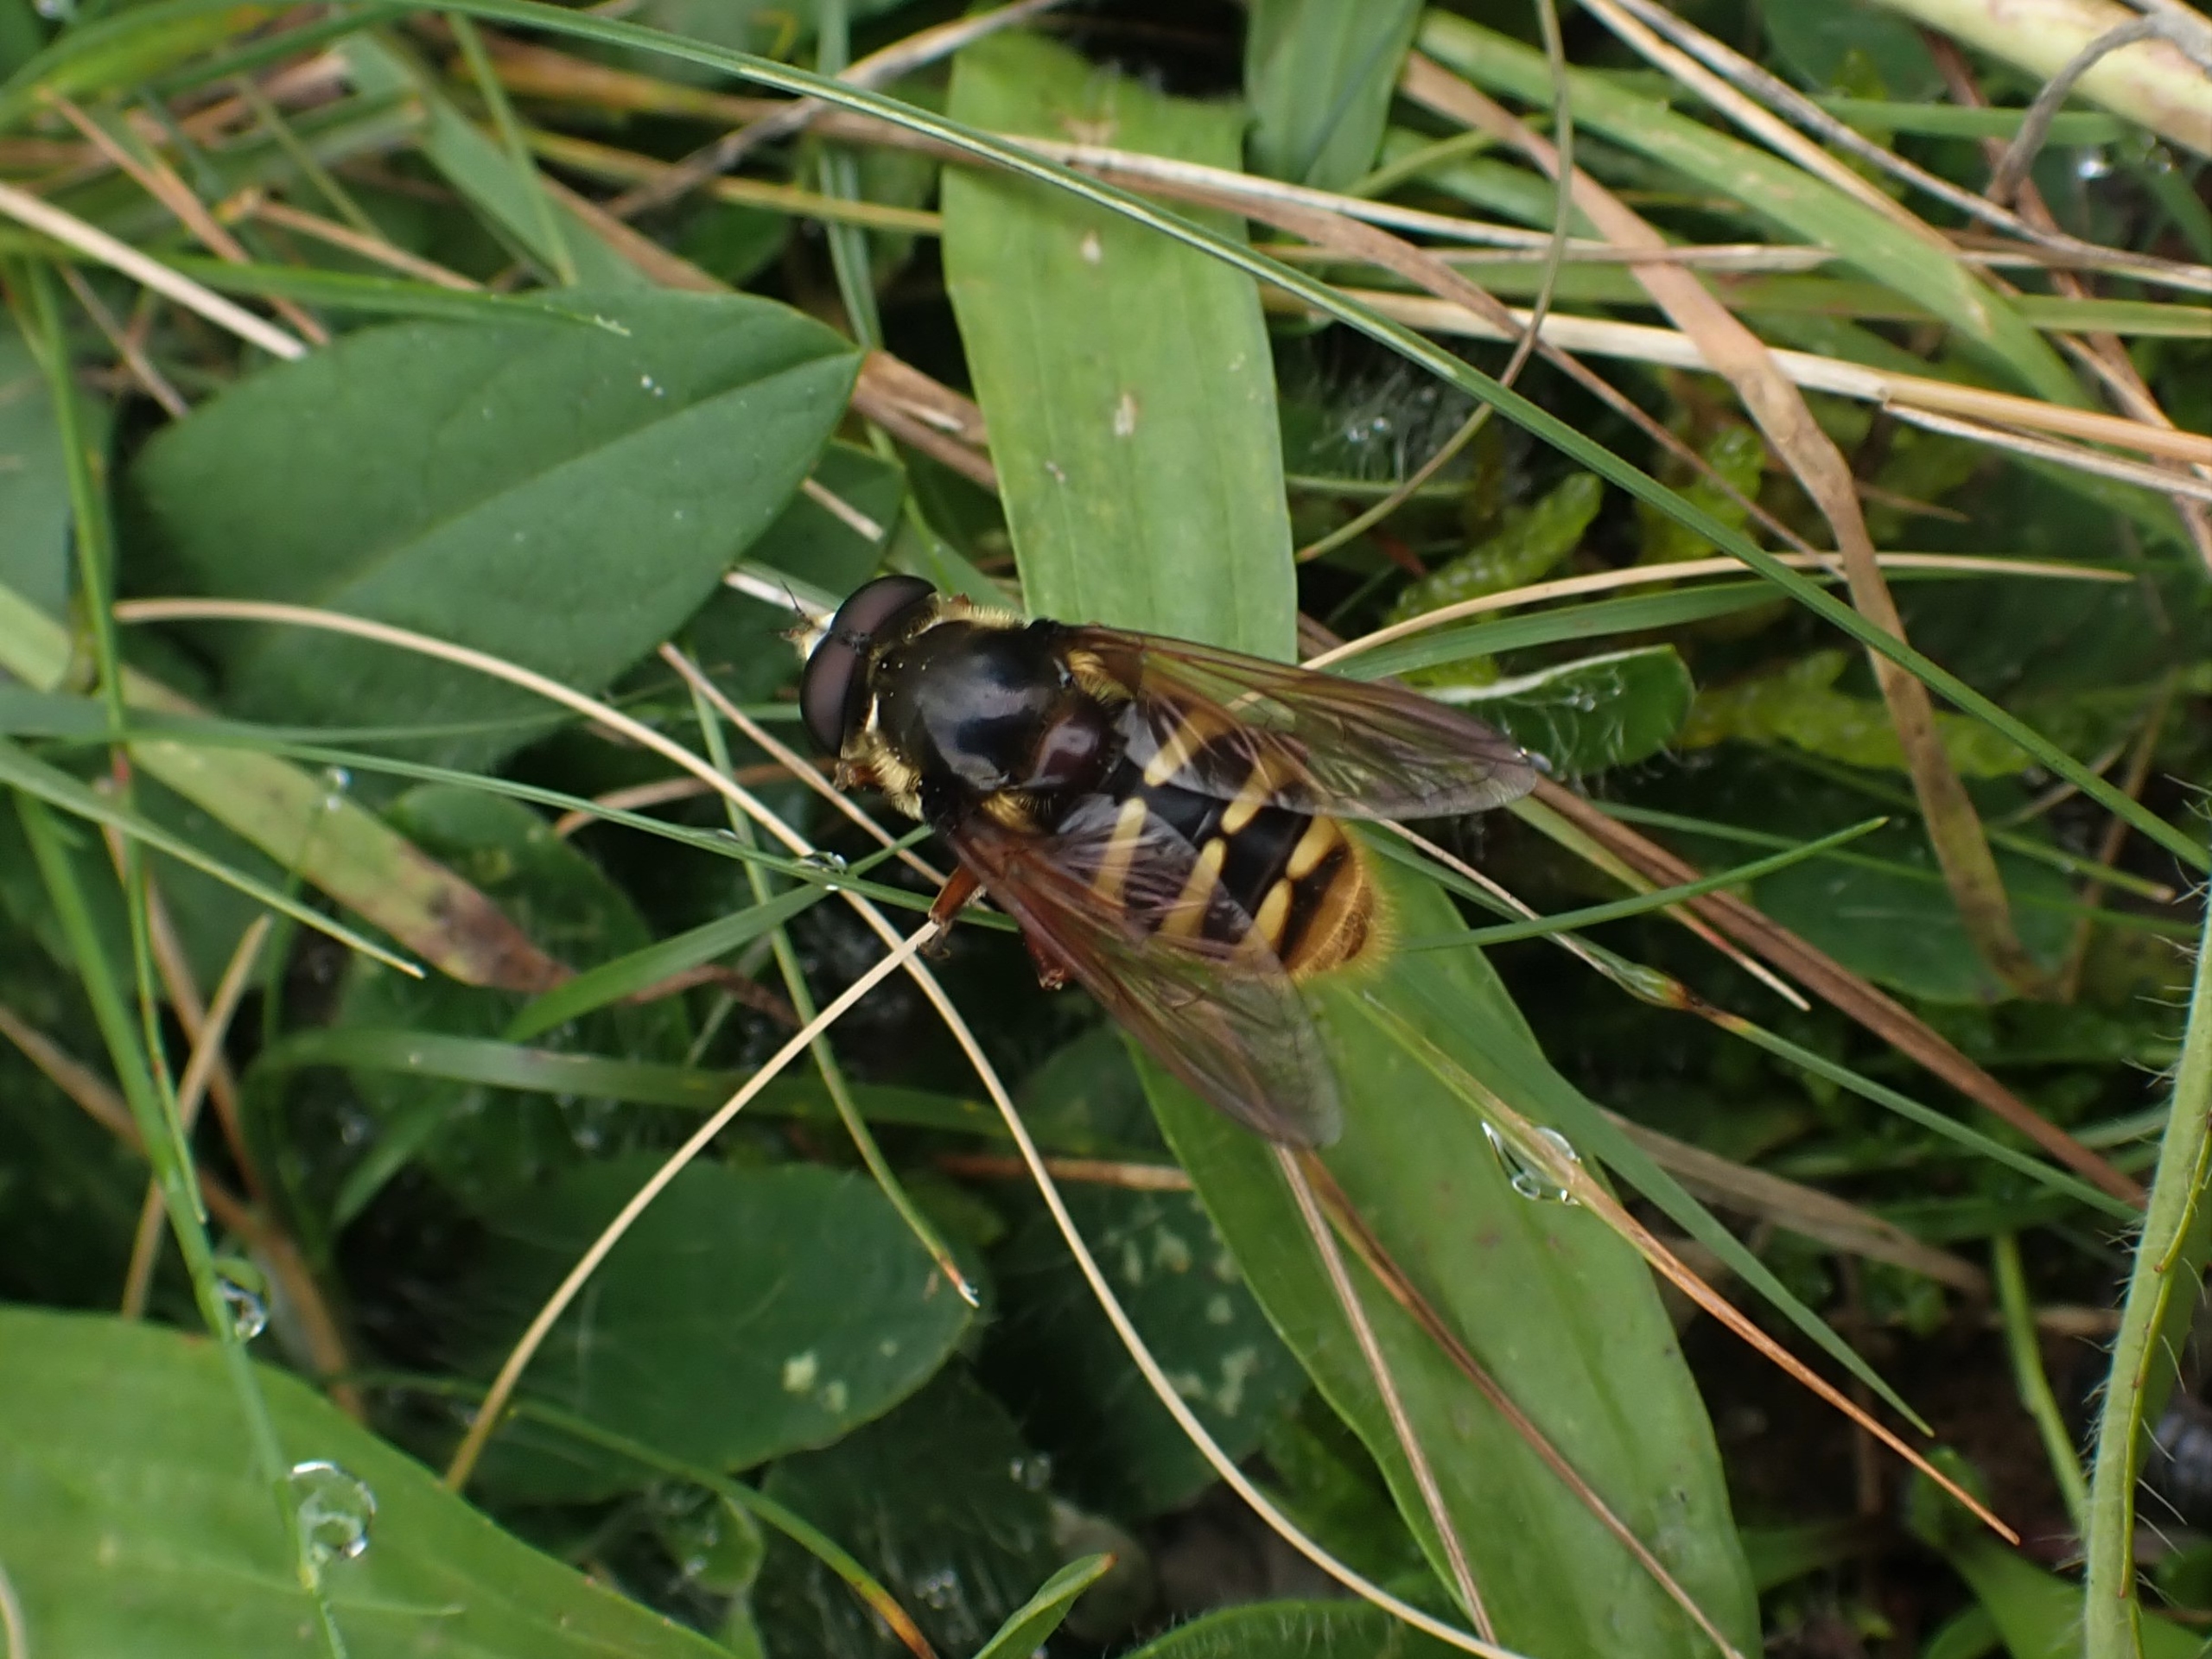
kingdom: Animalia
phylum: Arthropoda
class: Insecta
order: Diptera
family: Syrphidae
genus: Sericomyia
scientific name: Sericomyia silentis
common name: Tørve-silkesvirreflue
